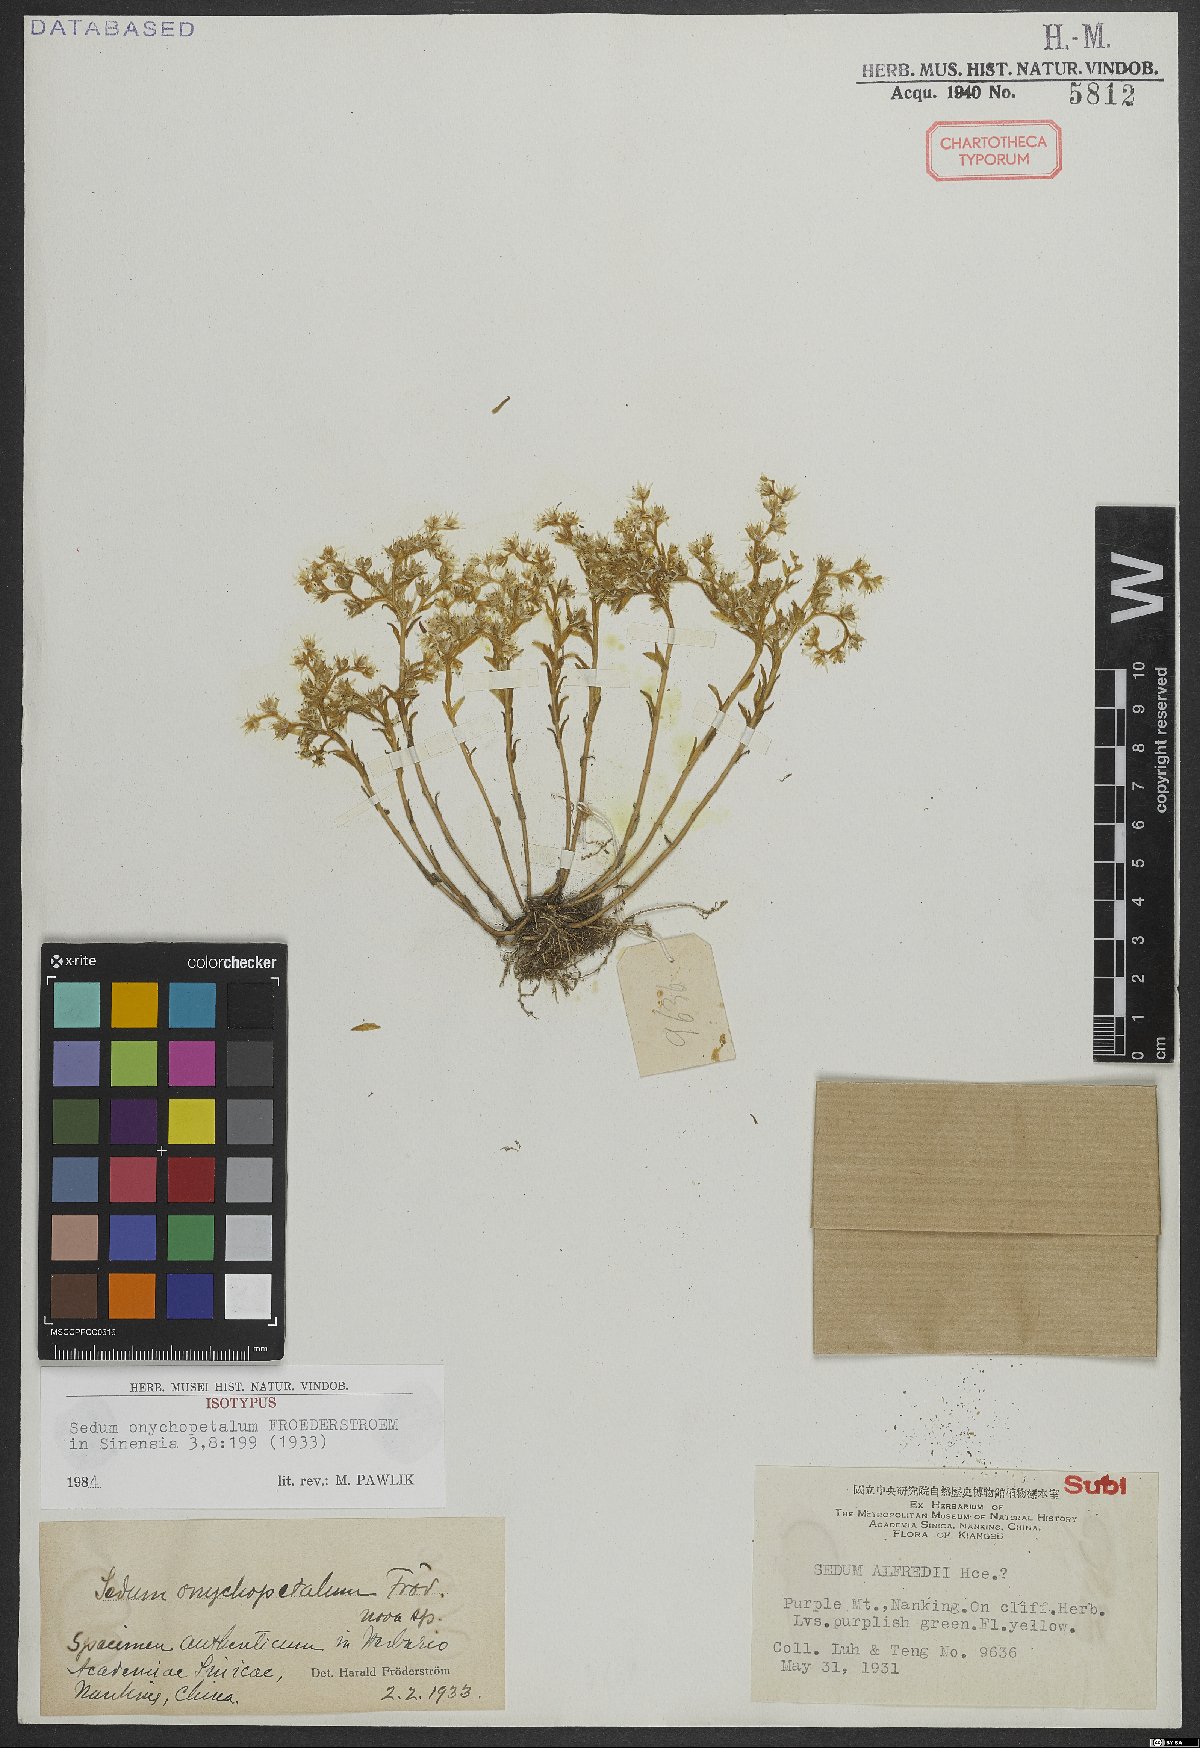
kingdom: Plantae
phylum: Tracheophyta
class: Magnoliopsida
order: Saxifragales
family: Crassulaceae
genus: Sedum
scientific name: Sedum onychopetalum
